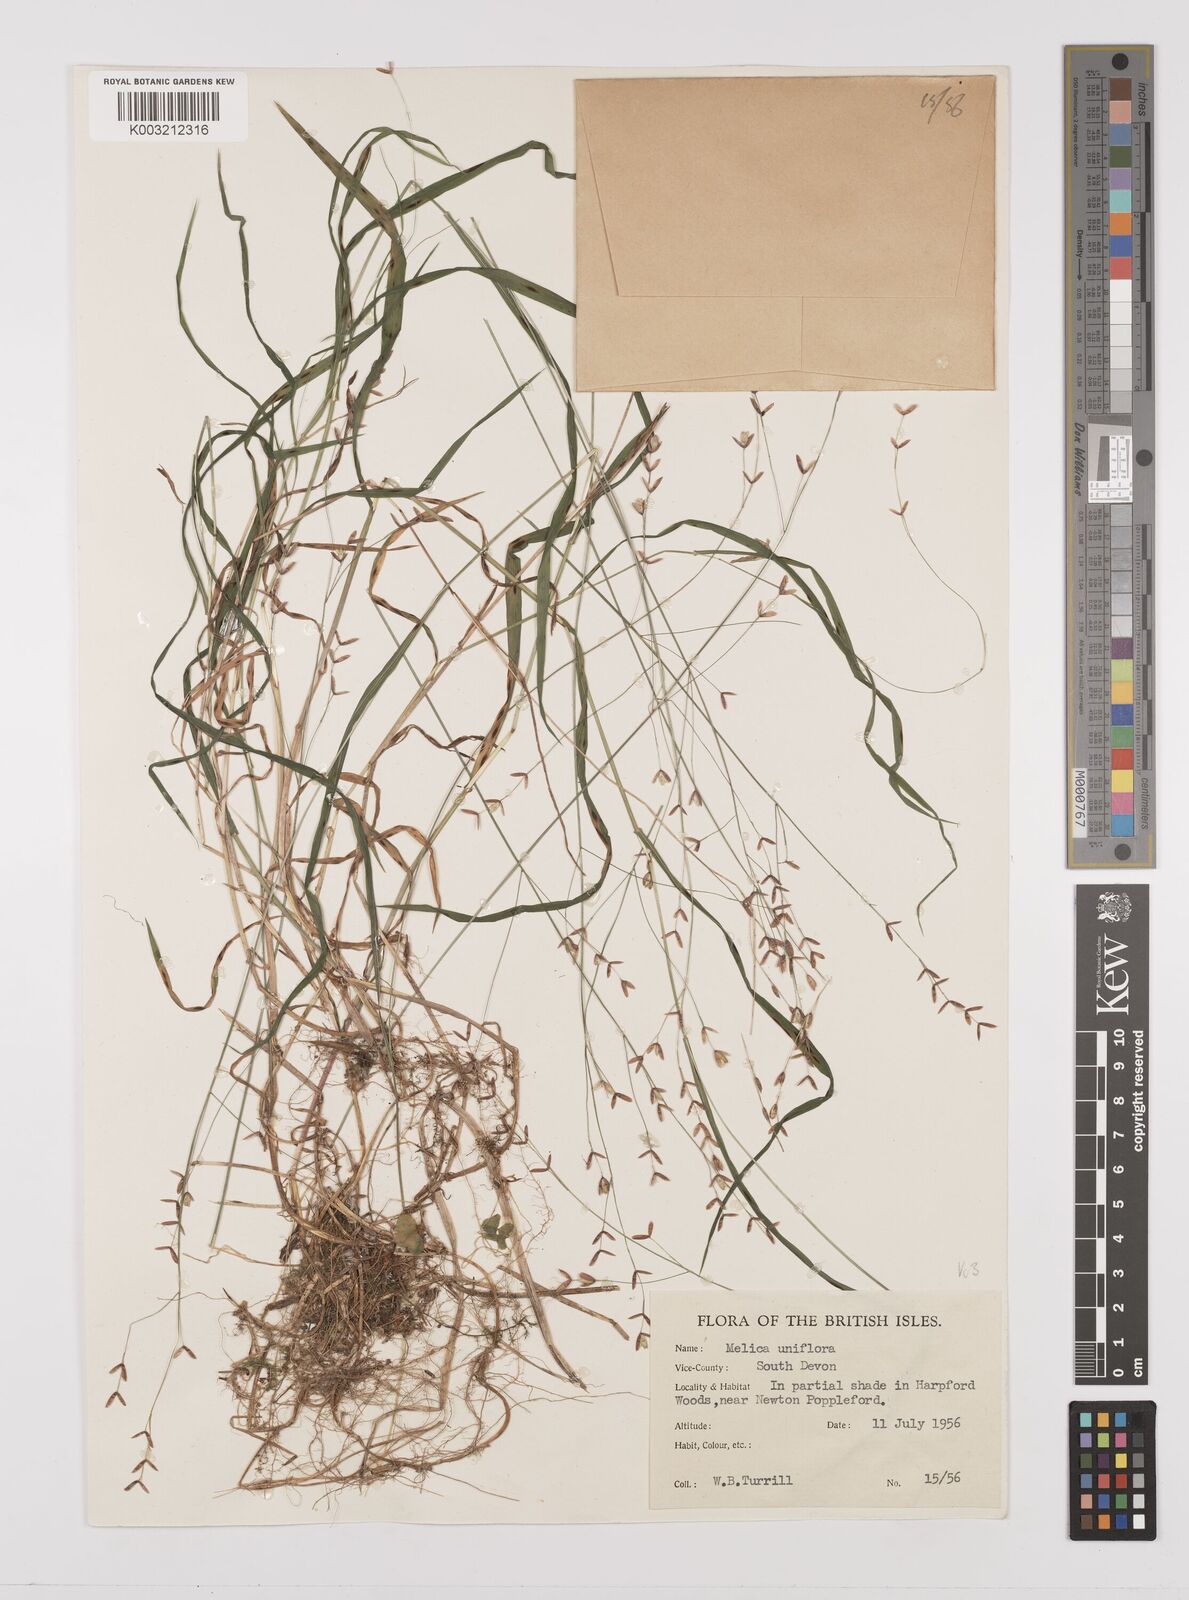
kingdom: Plantae
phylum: Tracheophyta
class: Liliopsida
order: Poales
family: Poaceae
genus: Melica
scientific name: Melica uniflora
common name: Wood melick
